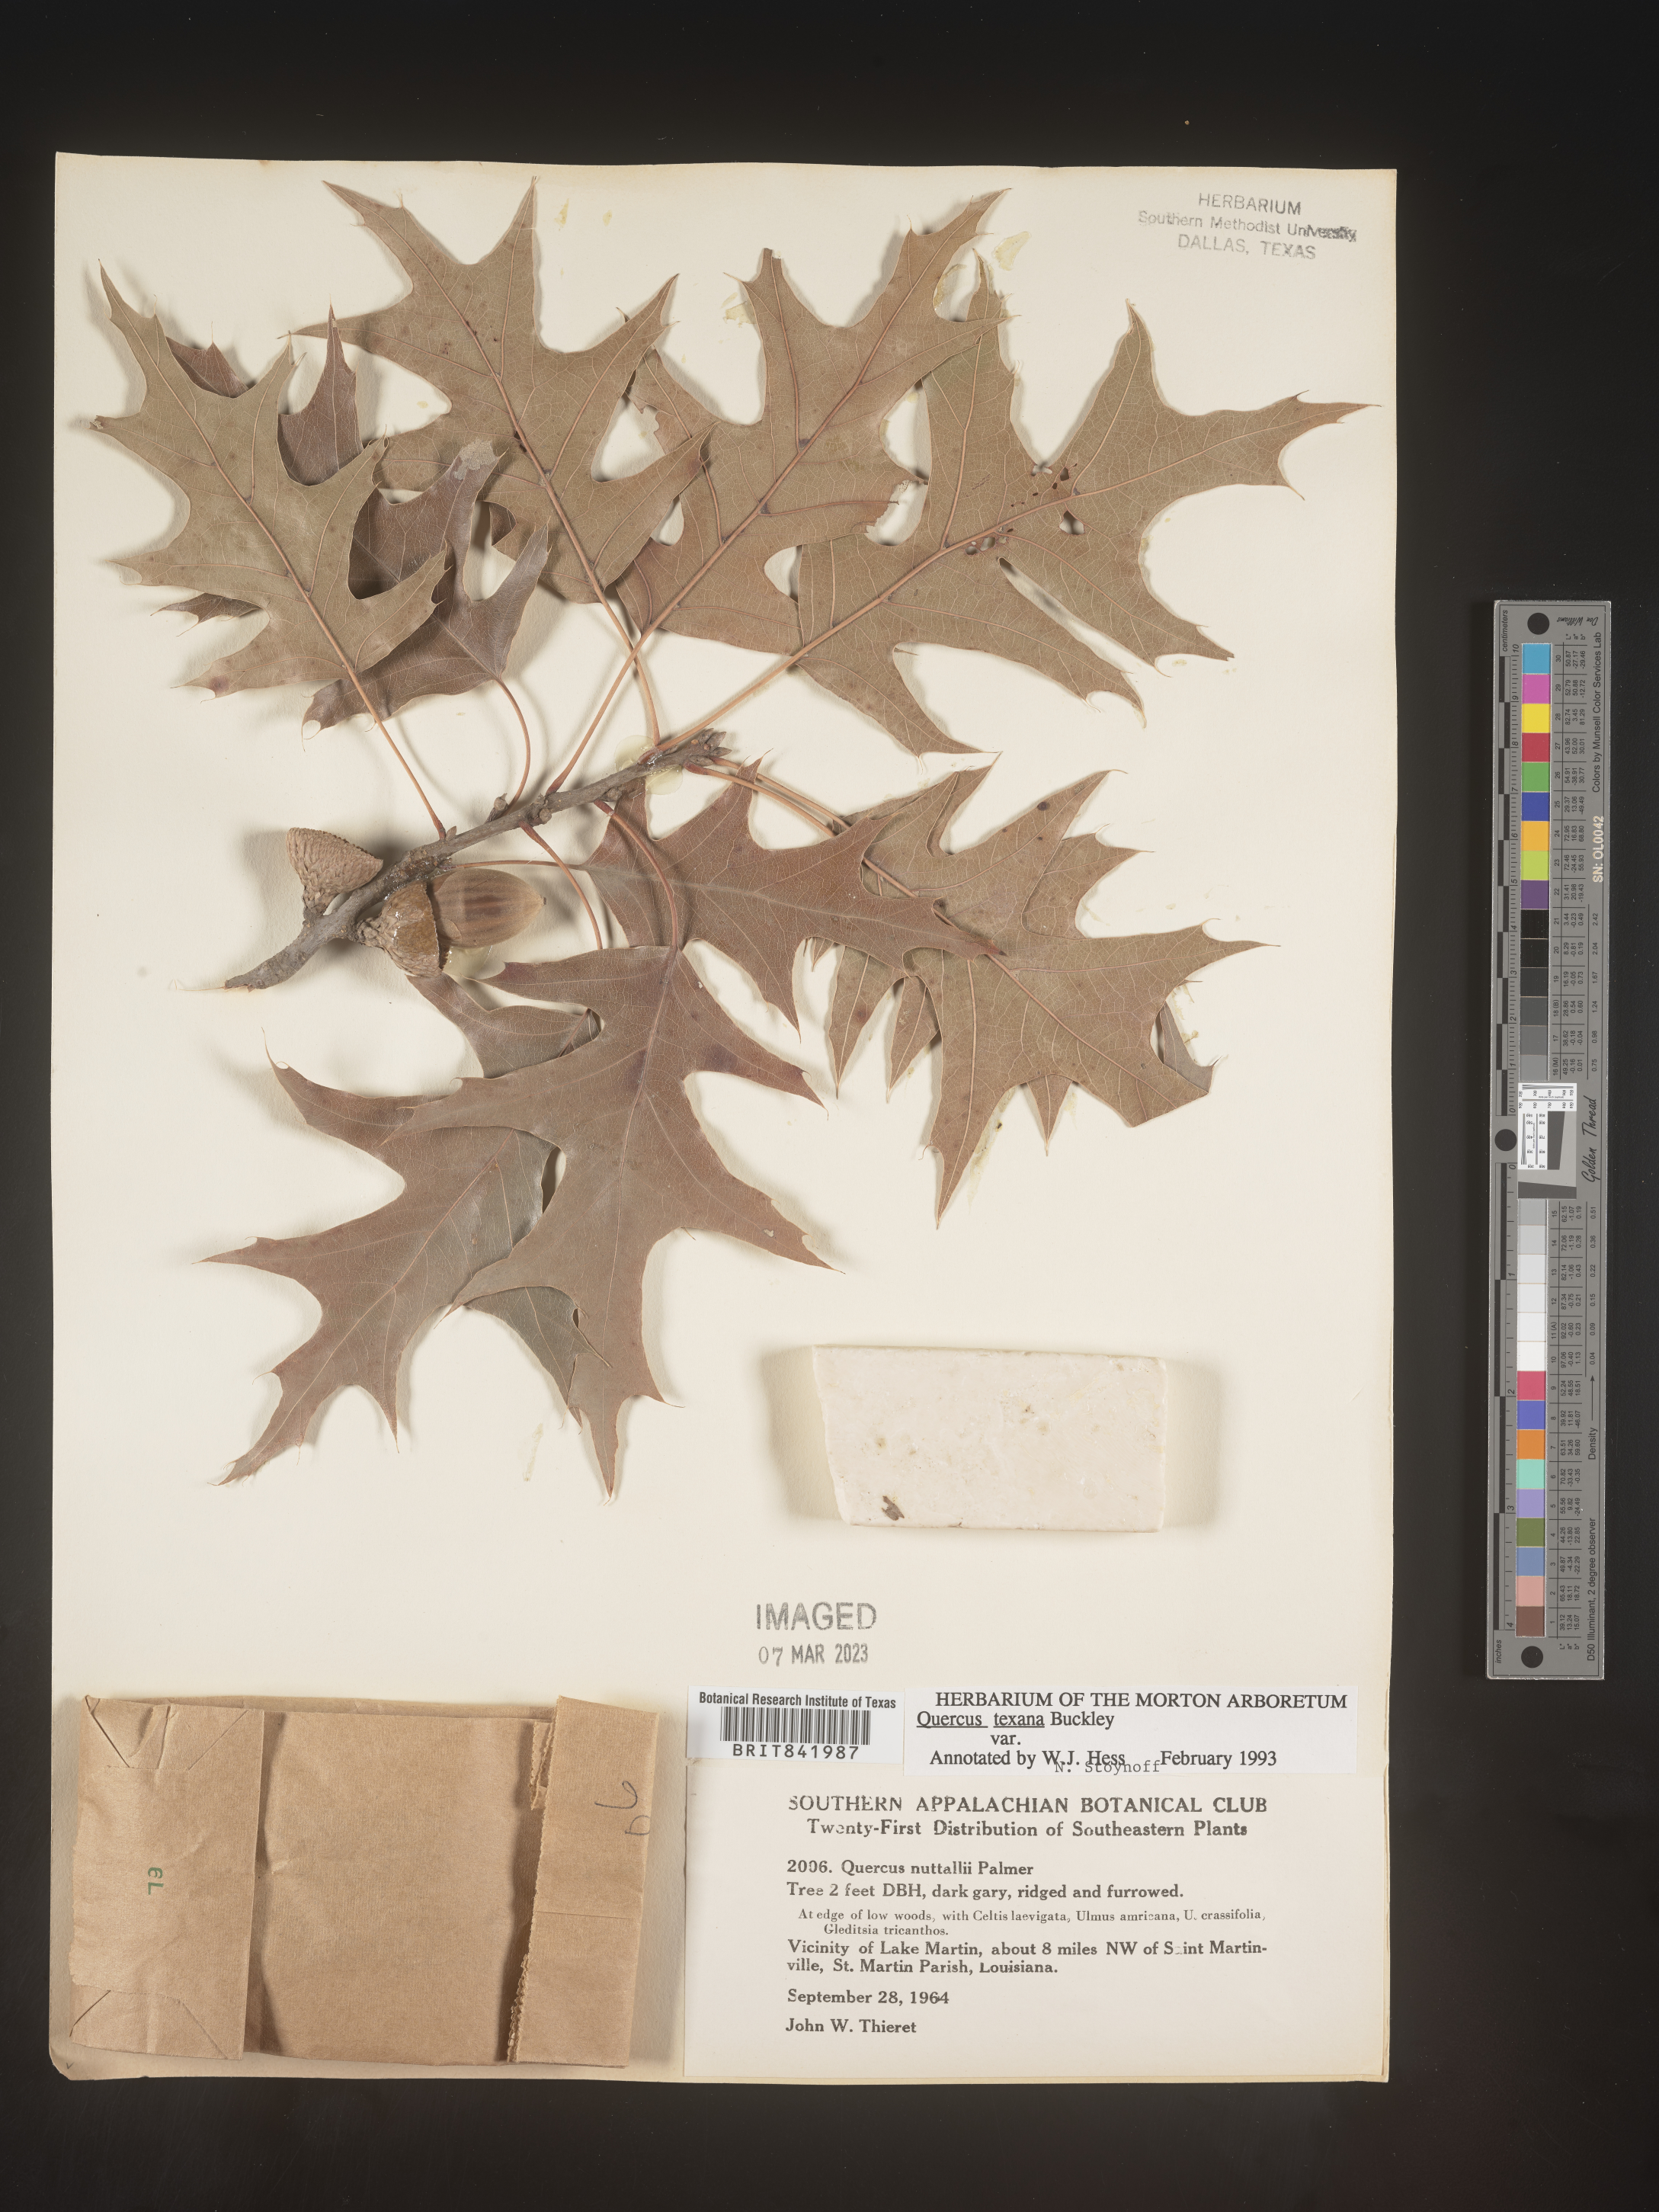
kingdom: Plantae
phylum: Tracheophyta
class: Magnoliopsida
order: Fagales
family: Fagaceae
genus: Quercus
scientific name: Quercus texana
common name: Nuttall oak
